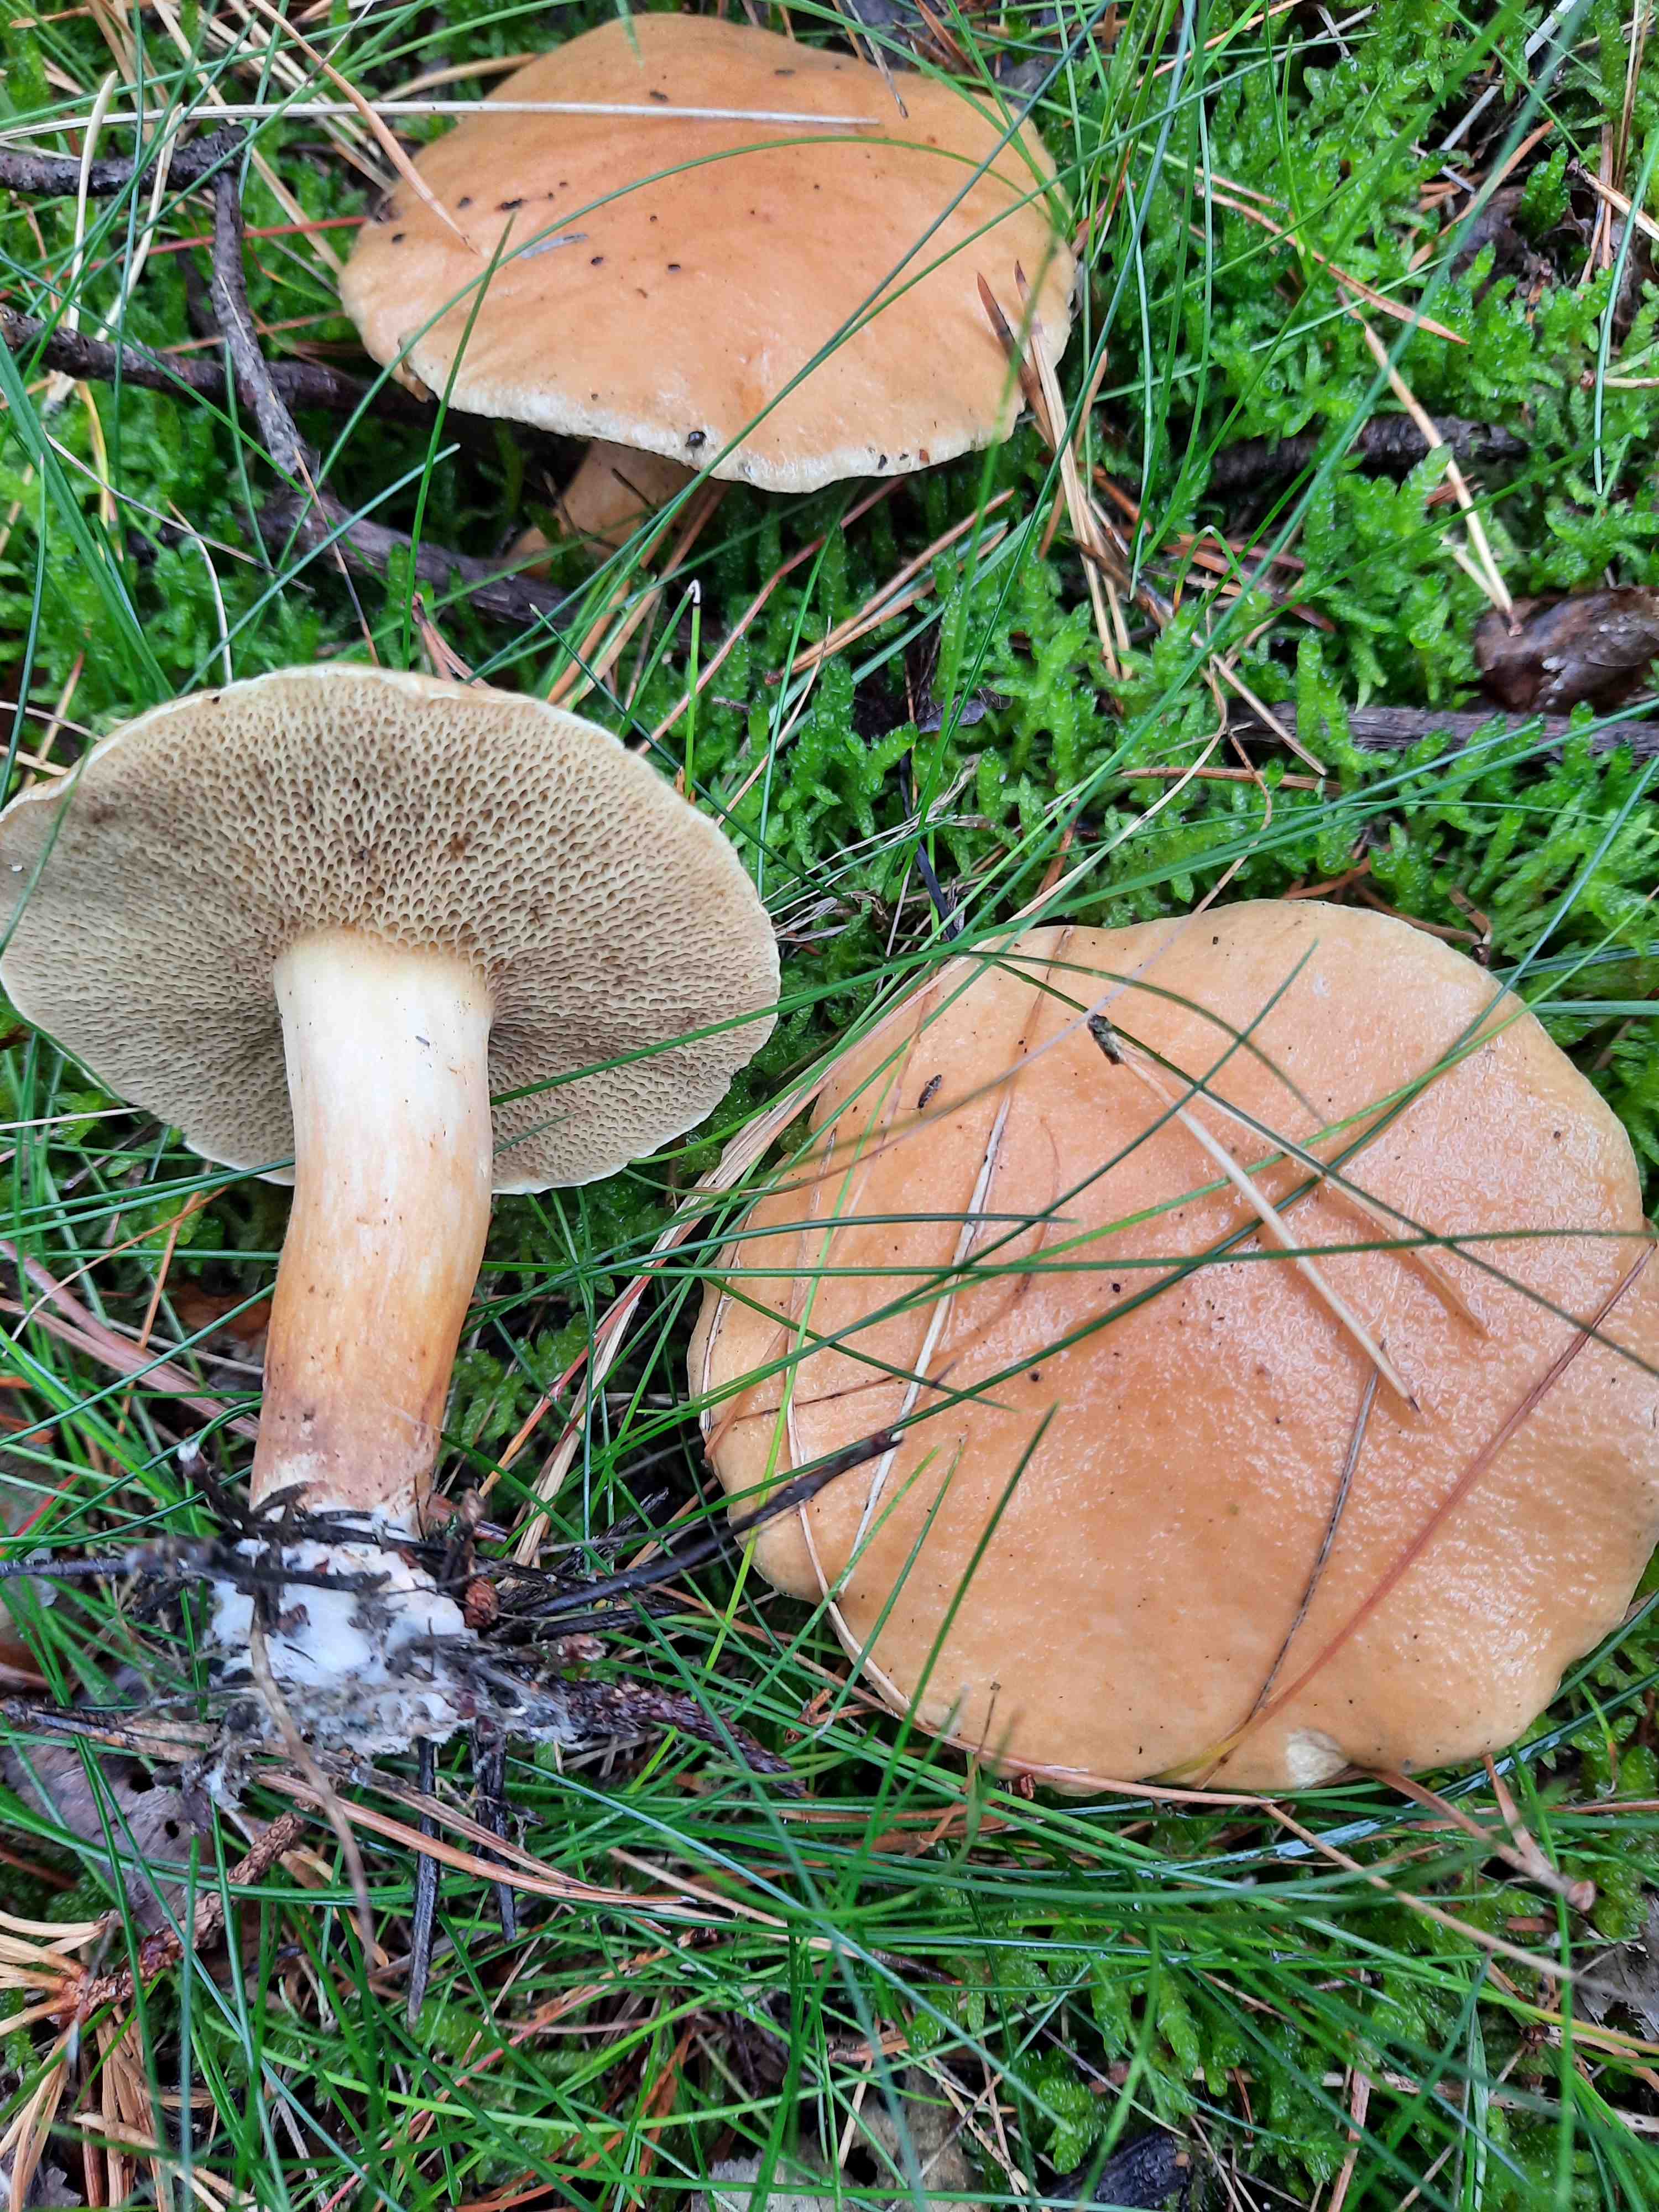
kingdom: Fungi
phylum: Basidiomycota
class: Agaricomycetes
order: Boletales
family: Suillaceae
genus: Suillus
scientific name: Suillus bovinus
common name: grovporet slimrørhat
